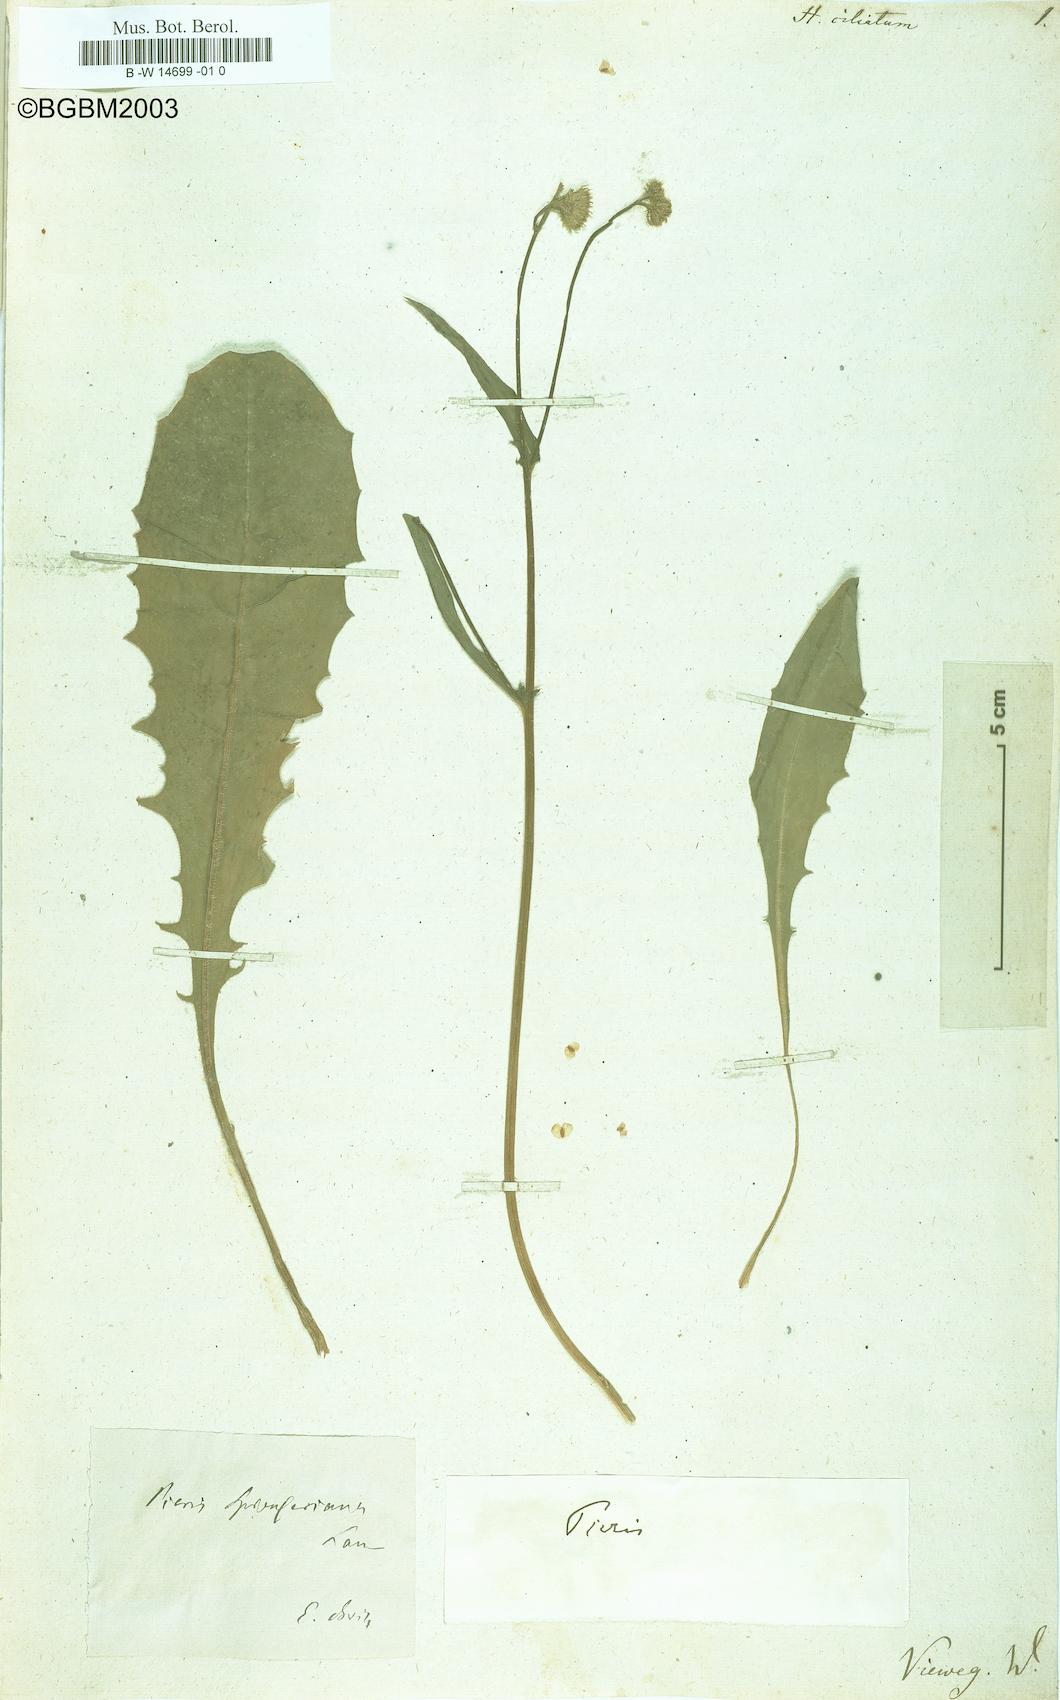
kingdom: Plantae
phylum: Tracheophyta
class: Magnoliopsida
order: Asterales
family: Asteraceae
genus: Picris
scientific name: Picris rhagadioloides
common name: Oxtongue
